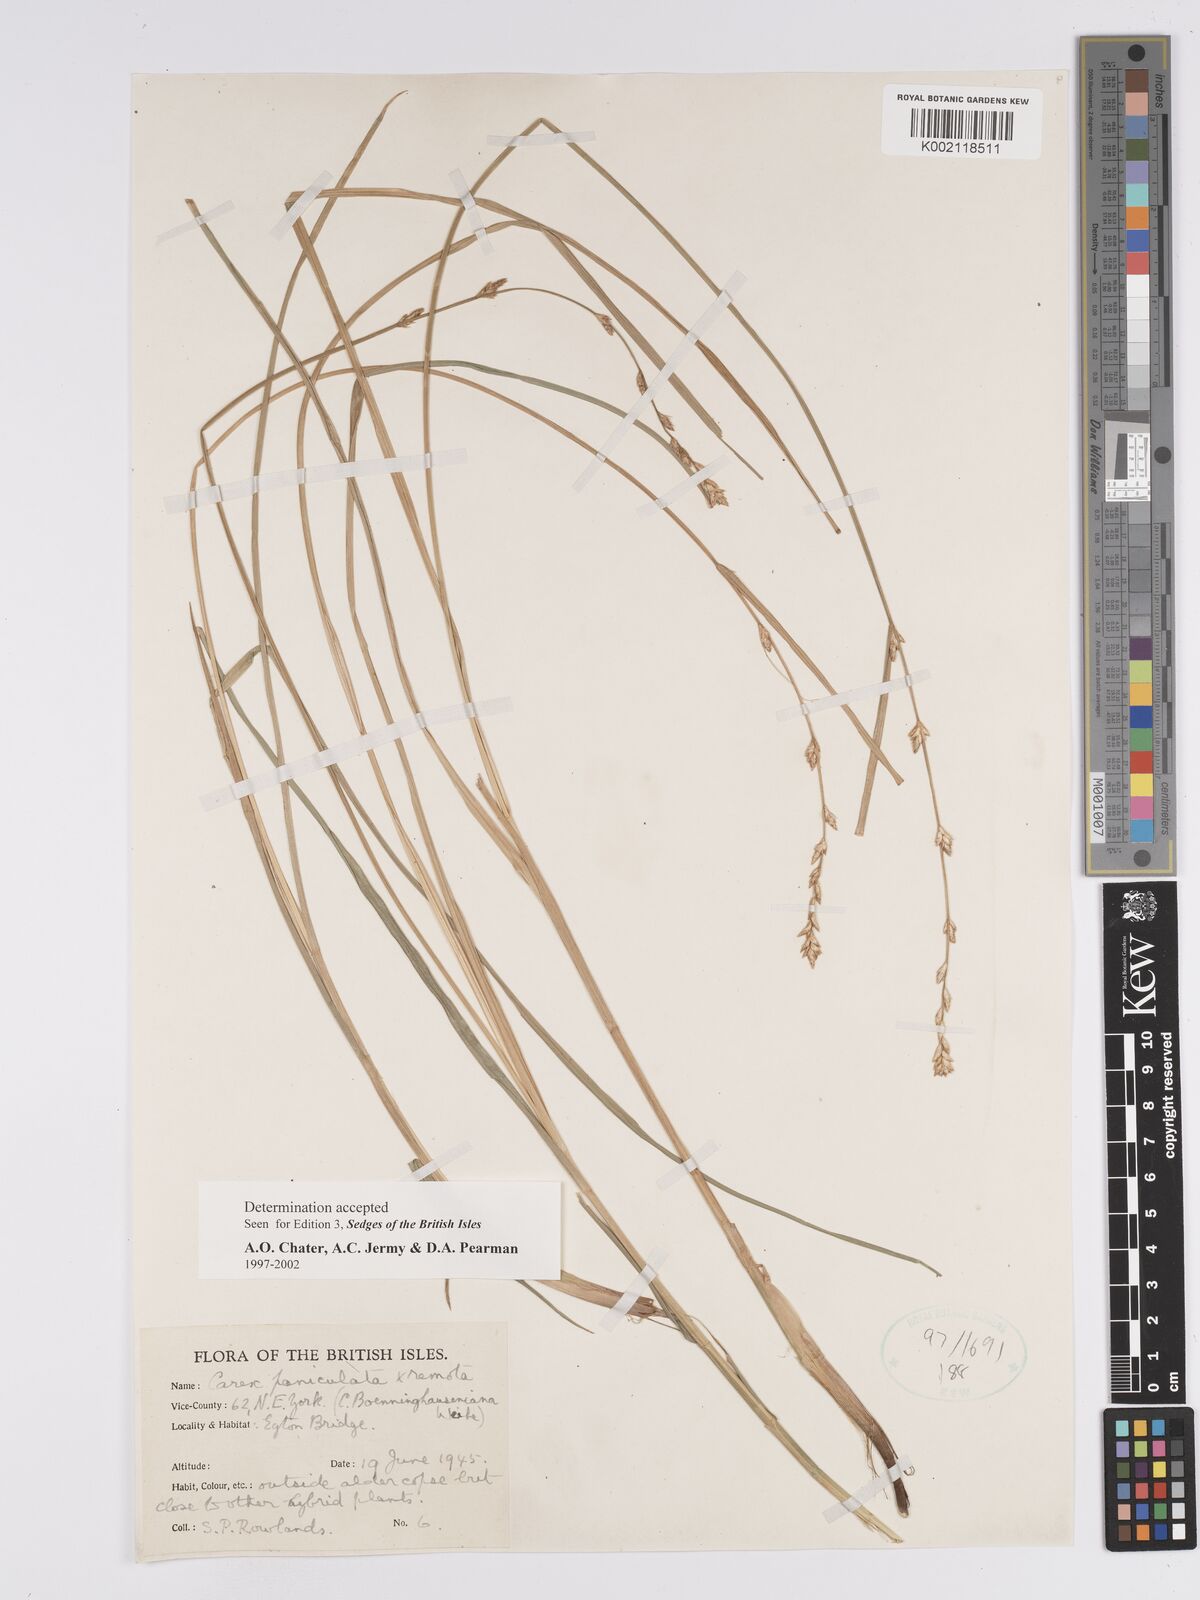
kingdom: Plantae
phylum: Tracheophyta
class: Liliopsida
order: Poales
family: Cyperaceae
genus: Carex
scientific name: Carex boenninghausiana
